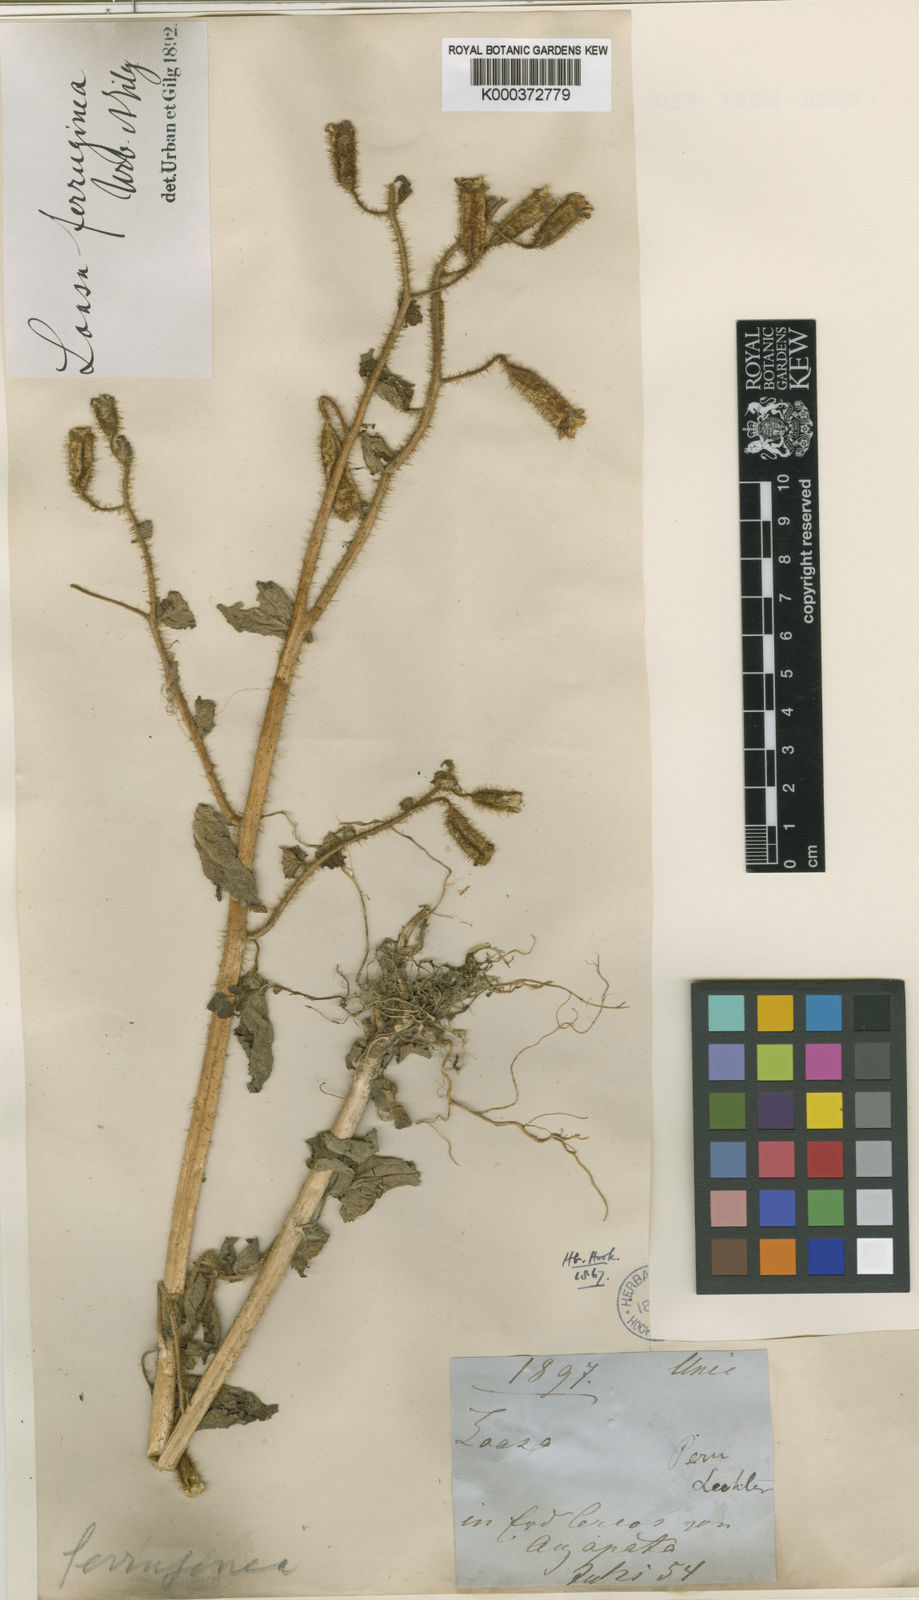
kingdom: Plantae
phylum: Tracheophyta
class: Magnoliopsida
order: Cornales
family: Loasaceae
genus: Nasa
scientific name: Nasa ferruginea
